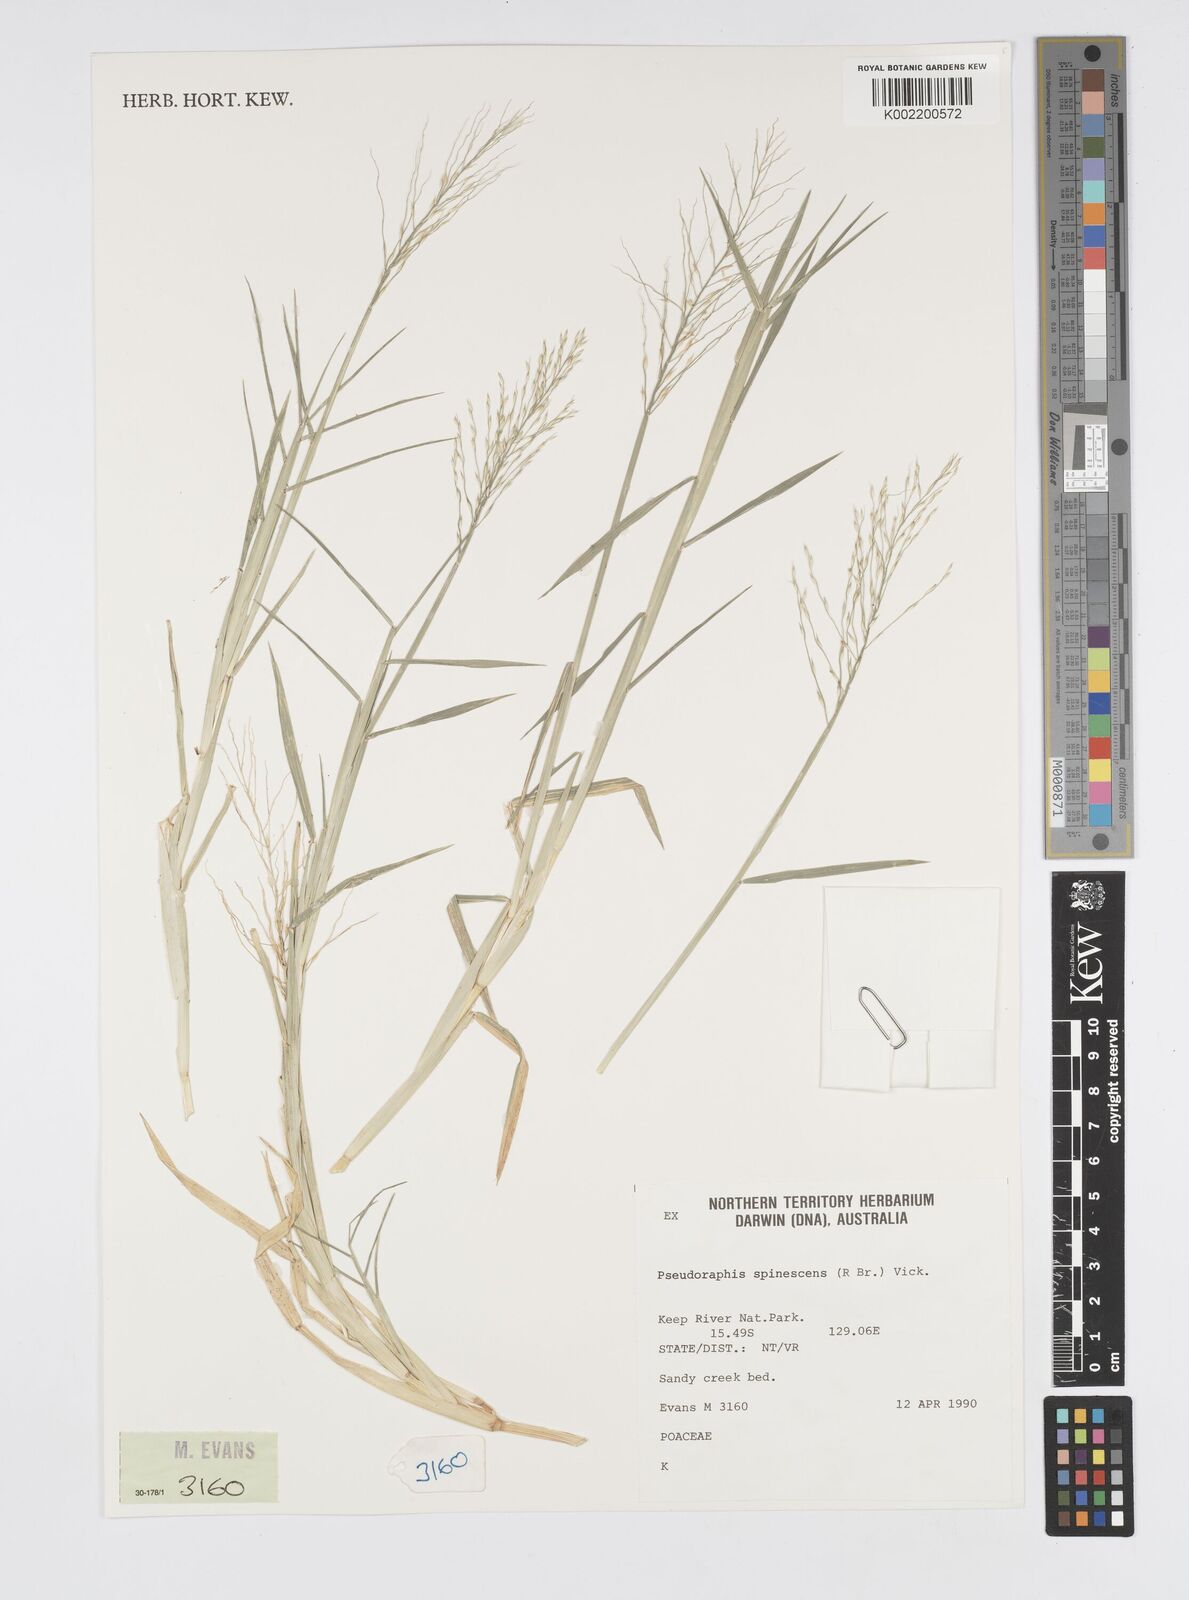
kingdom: Plantae
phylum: Tracheophyta
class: Liliopsida
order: Poales
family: Poaceae
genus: Pseudoraphis
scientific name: Pseudoraphis spinescens
